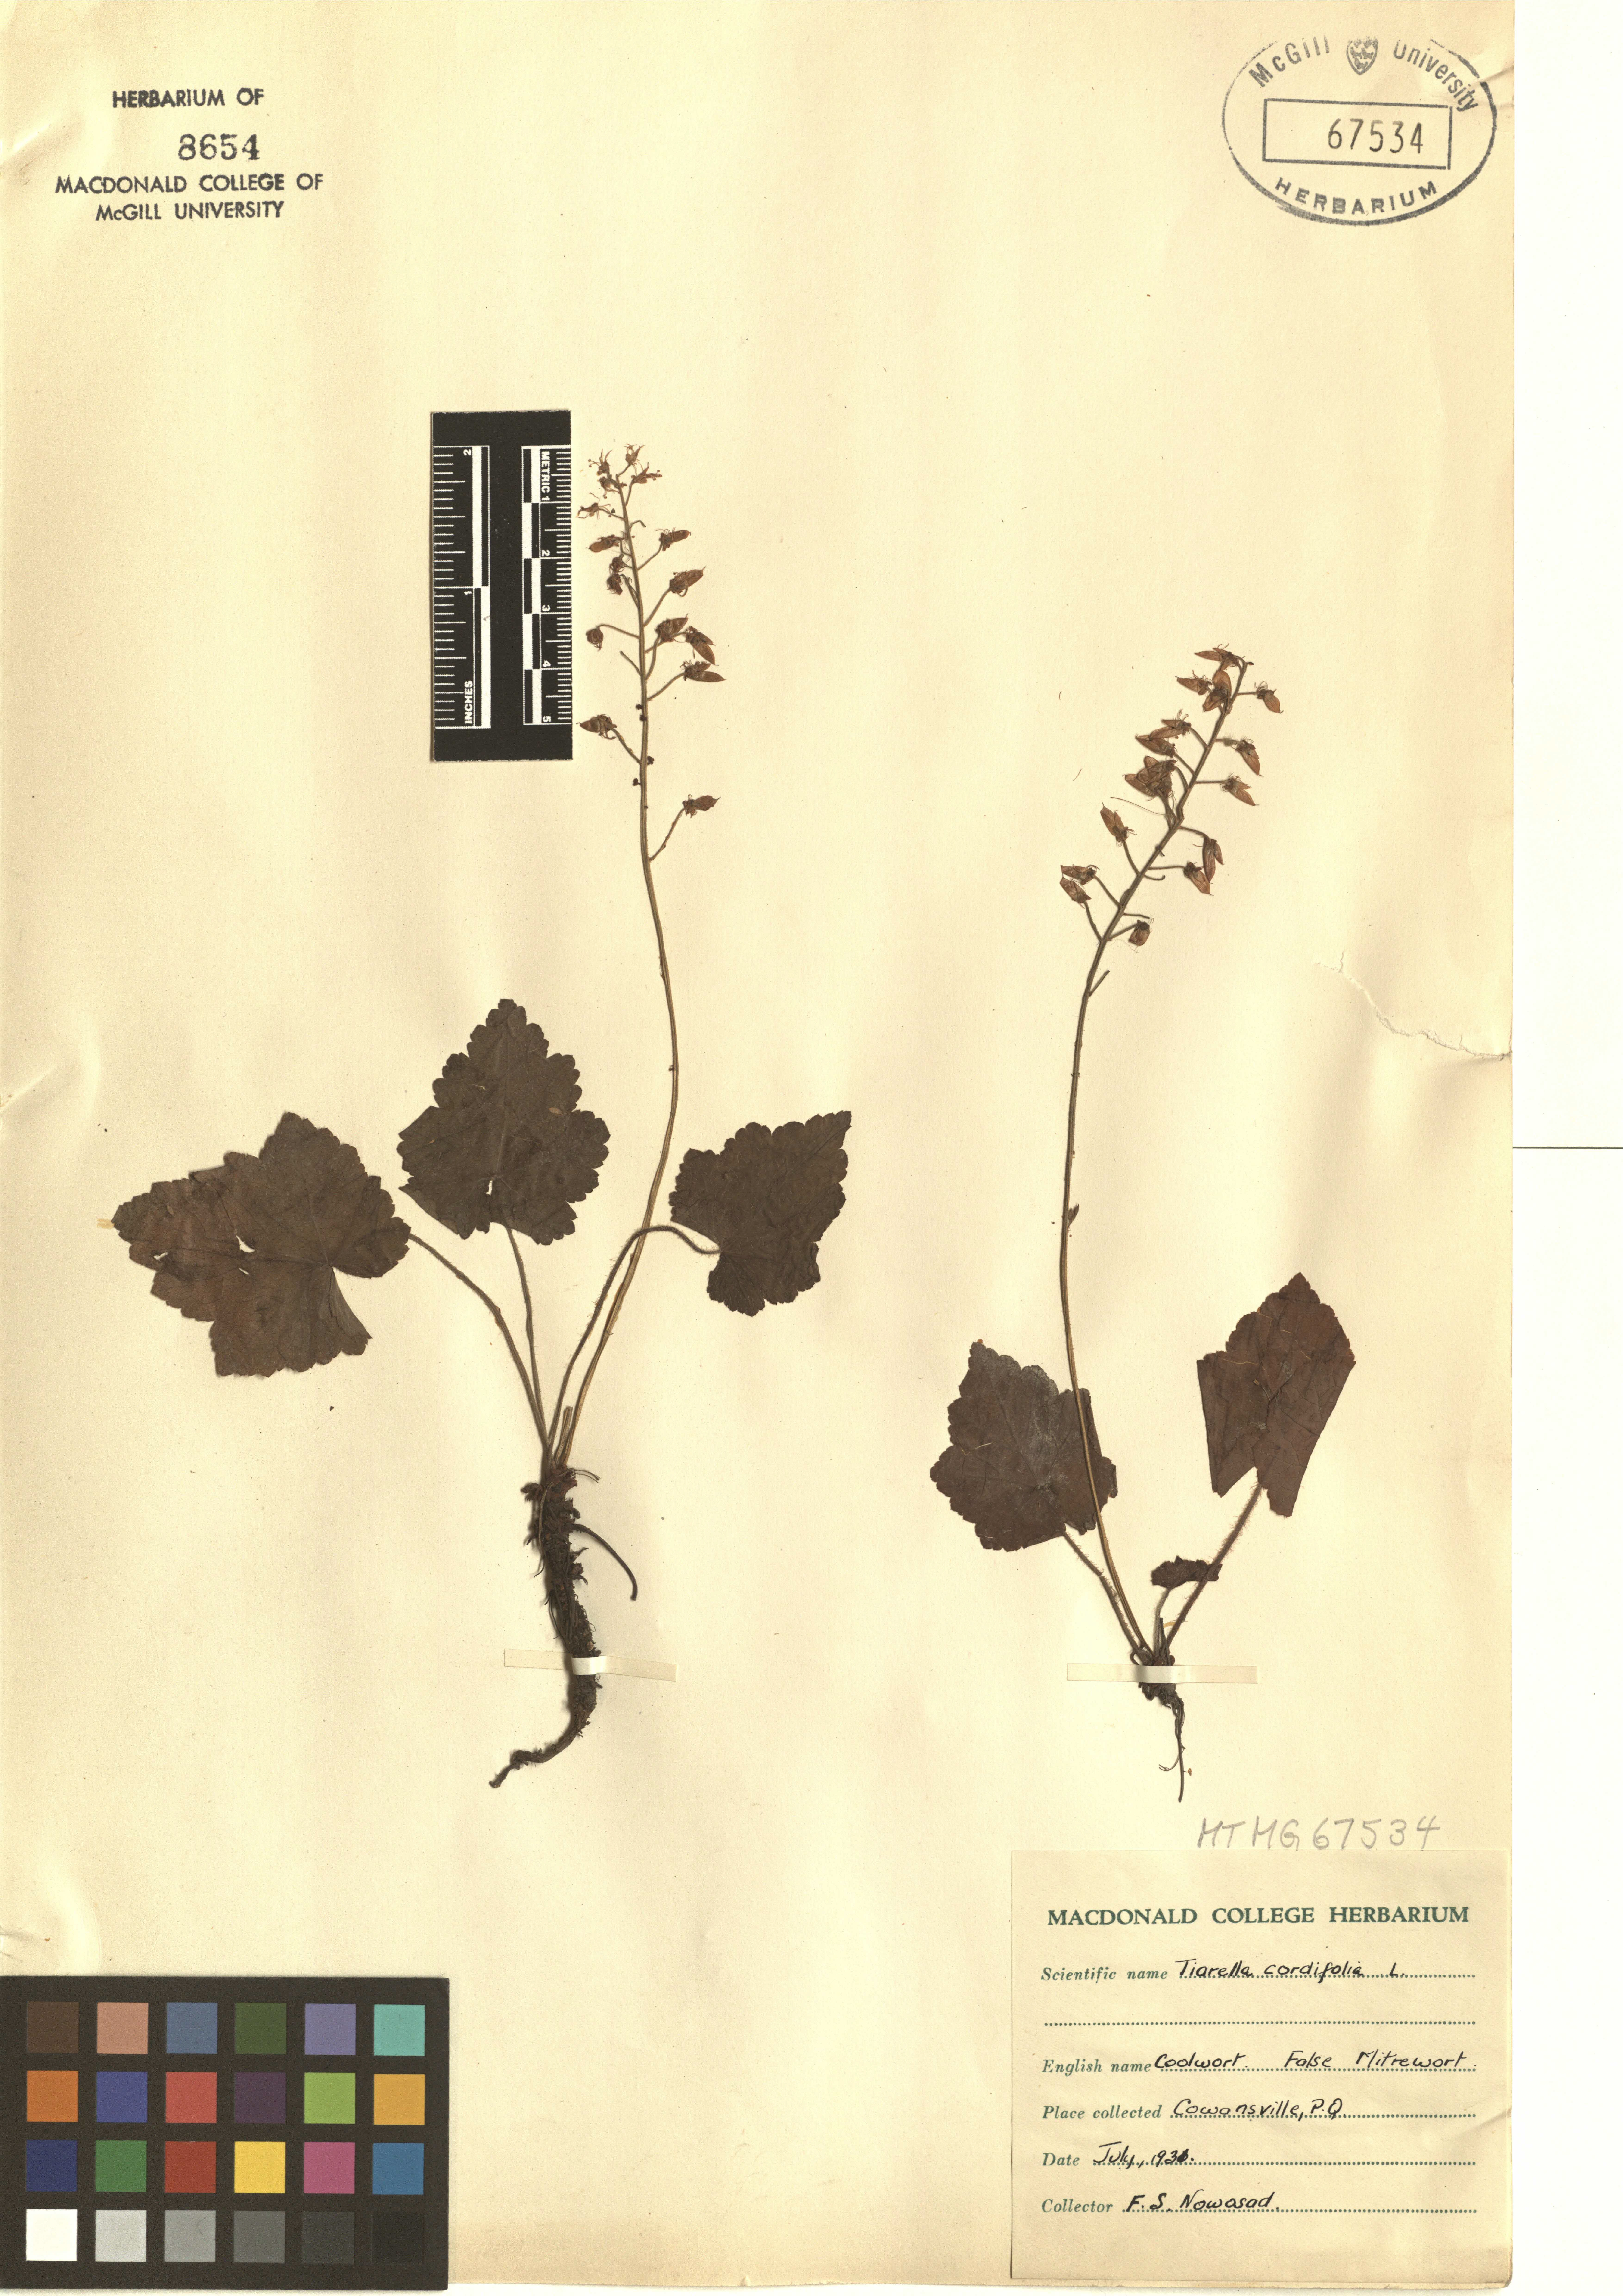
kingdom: Plantae
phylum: Tracheophyta
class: Magnoliopsida
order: Saxifragales
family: Saxifragaceae
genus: Tiarella
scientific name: Tiarella cordifolia
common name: Foamflower
